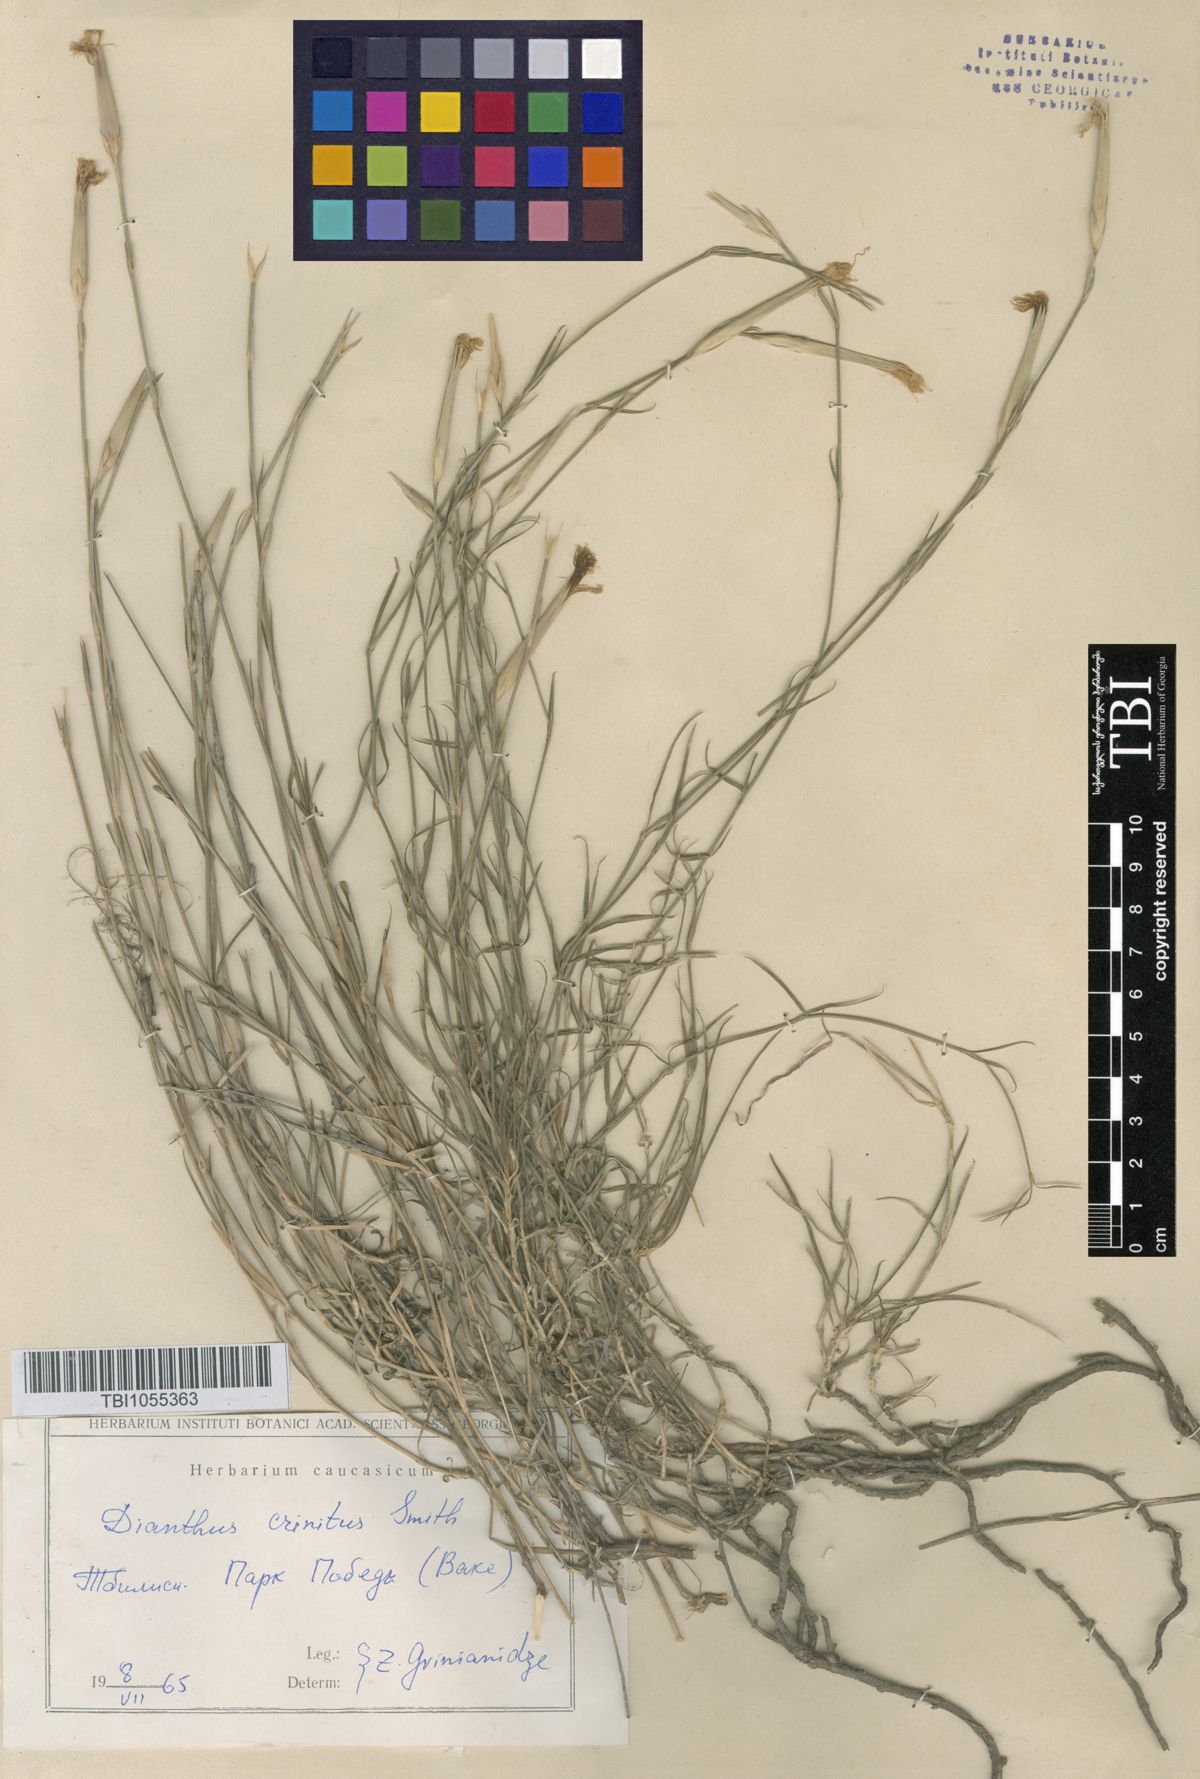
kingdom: Plantae
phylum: Tracheophyta
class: Magnoliopsida
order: Caryophyllales
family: Caryophyllaceae
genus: Dianthus
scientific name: Dianthus crinitus
